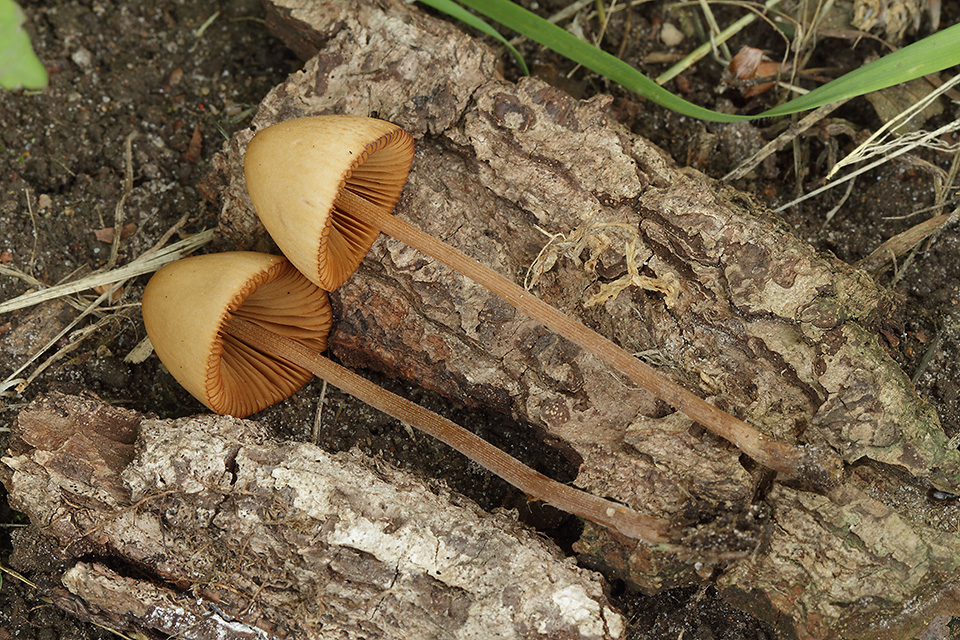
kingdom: Fungi
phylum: Basidiomycota
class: Agaricomycetes
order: Agaricales
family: Bolbitiaceae
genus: Conocybe
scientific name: Conocybe semiglobata
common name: halvkugleformet keglehat
